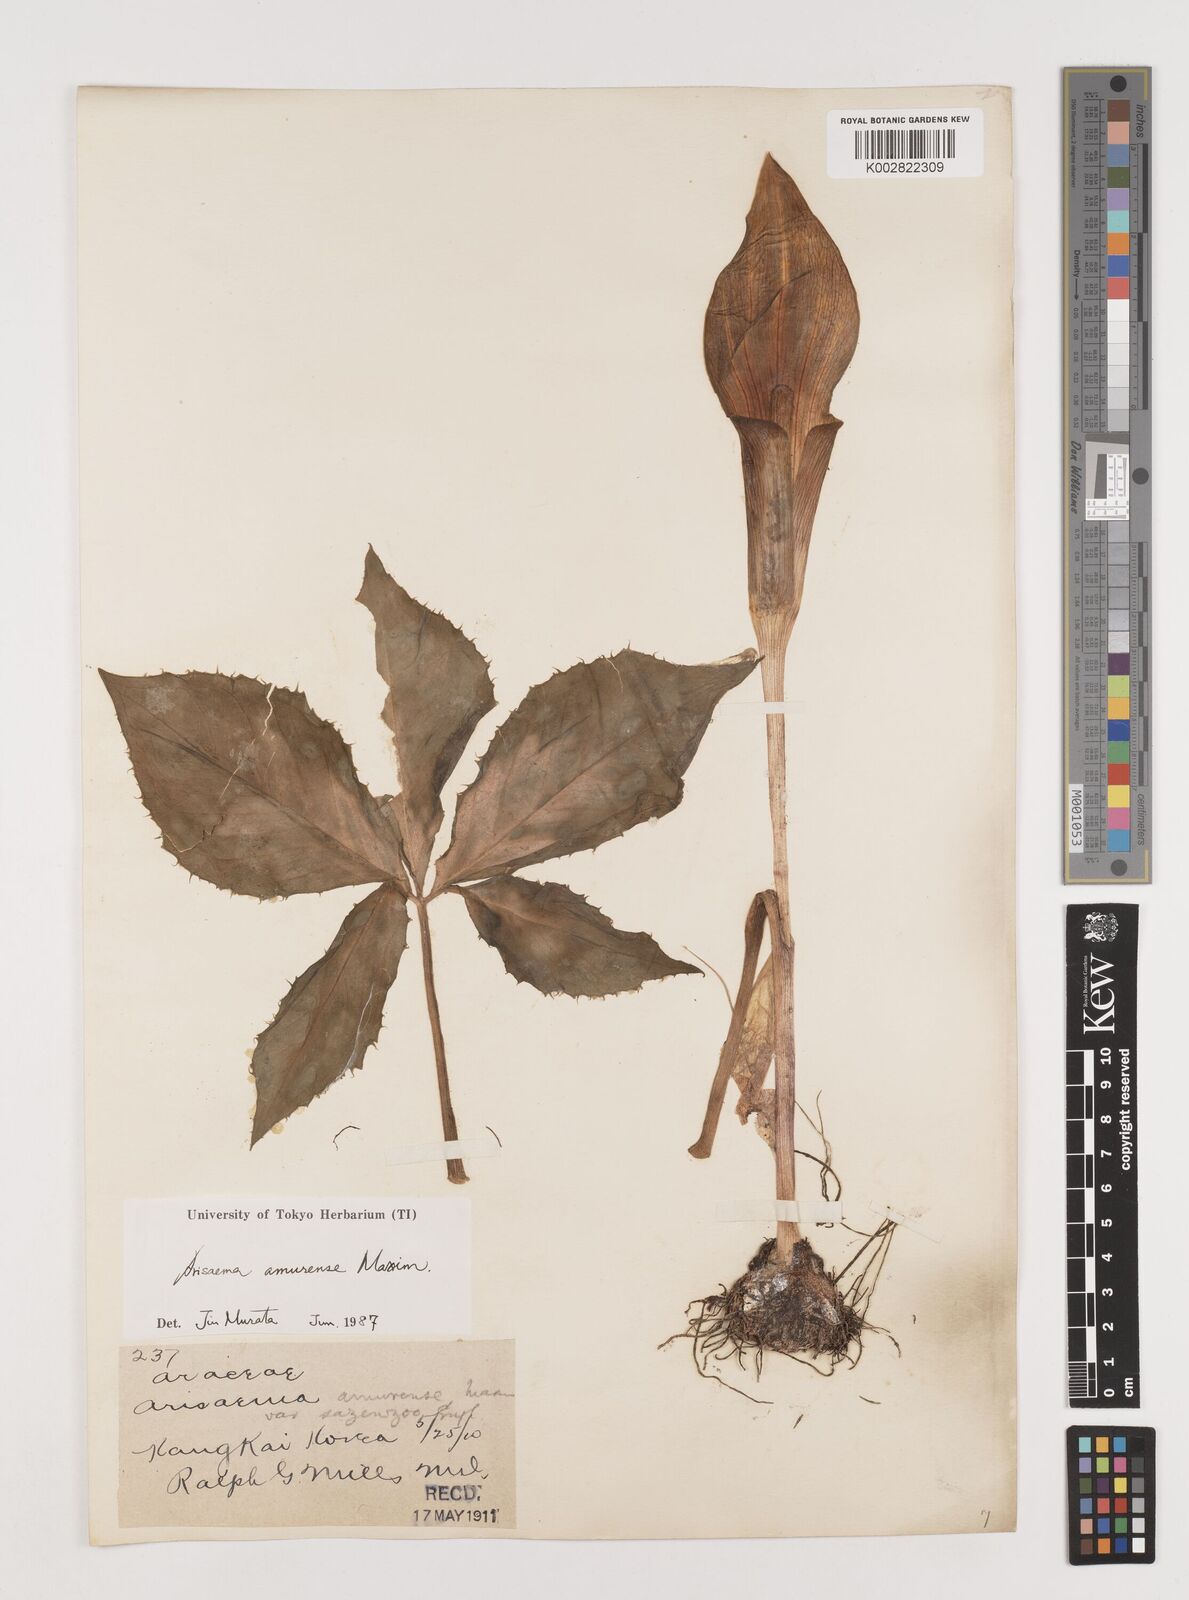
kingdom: Plantae
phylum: Tracheophyta
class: Liliopsida
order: Alismatales
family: Araceae
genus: Arisaema
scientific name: Arisaema amurense
